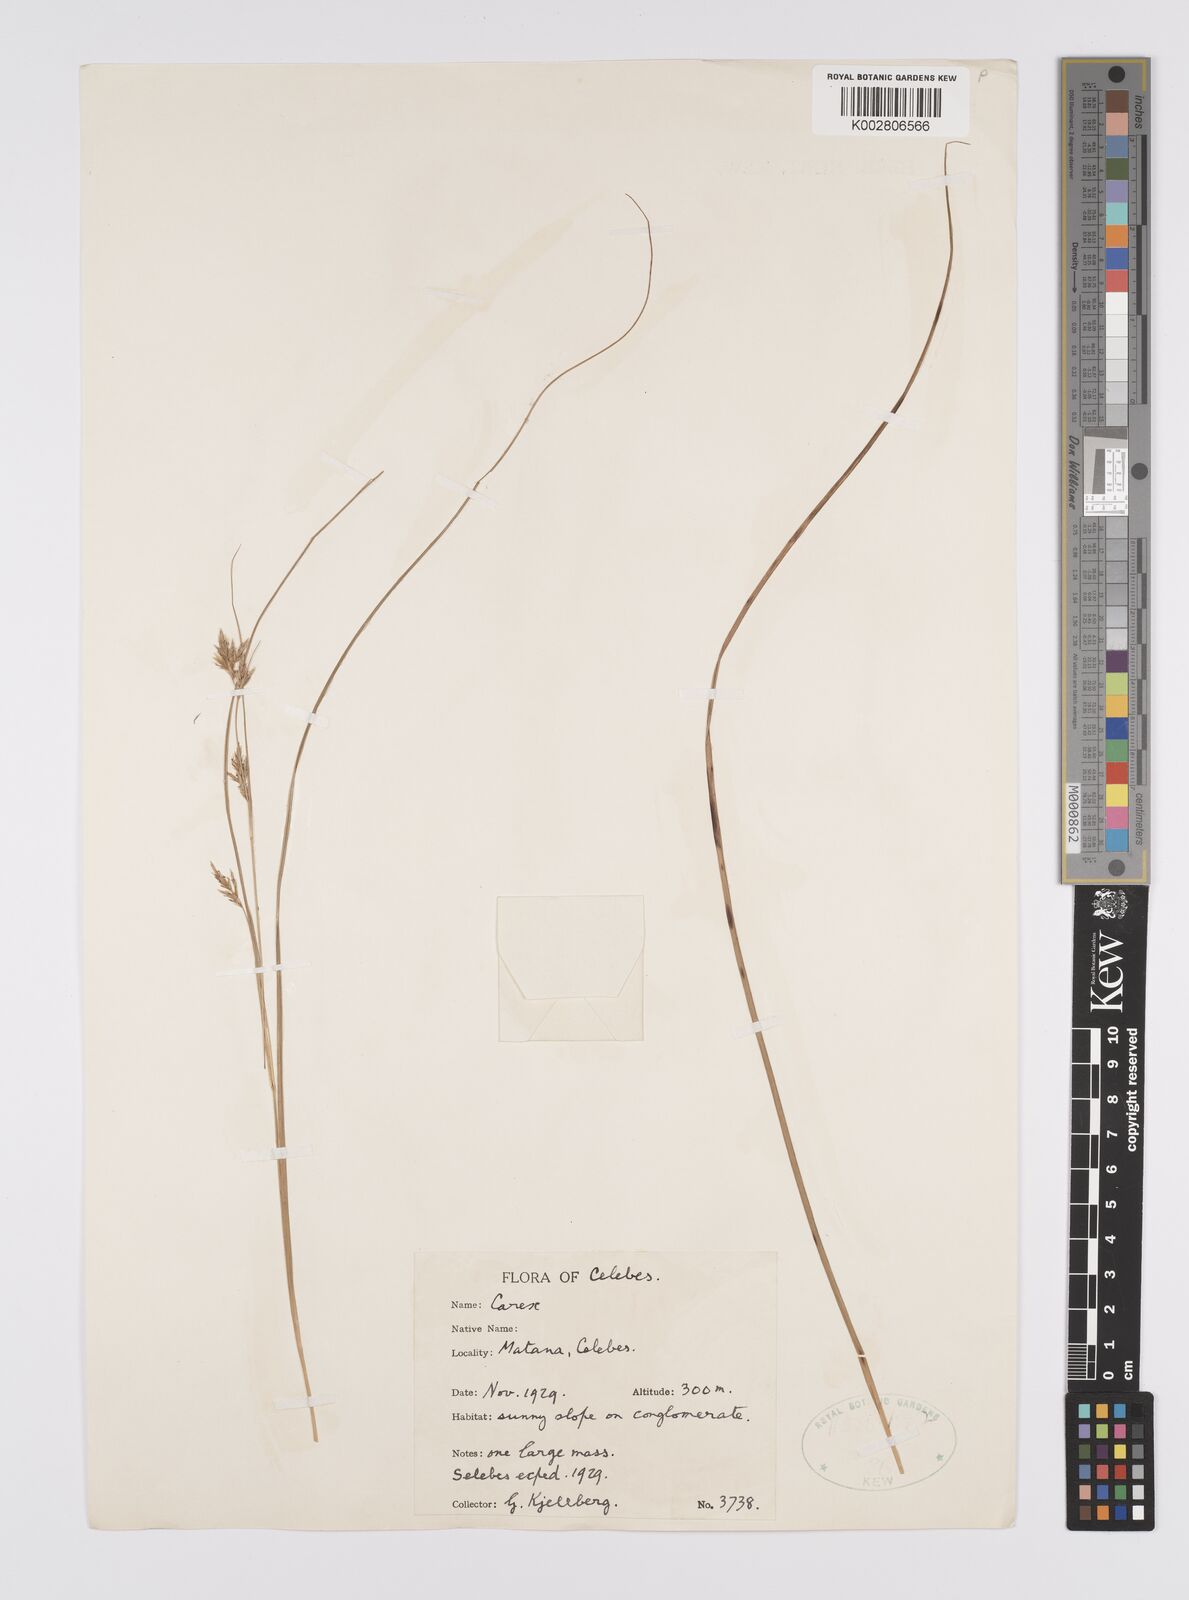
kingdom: Plantae
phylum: Tracheophyta
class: Liliopsida
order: Poales
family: Cyperaceae
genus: Carex
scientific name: Carex
